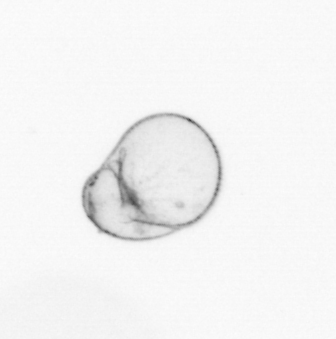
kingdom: Chromista
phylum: Myzozoa
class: Dinophyceae
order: Noctilucales
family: Noctilucaceae
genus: Noctiluca
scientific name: Noctiluca scintillans
